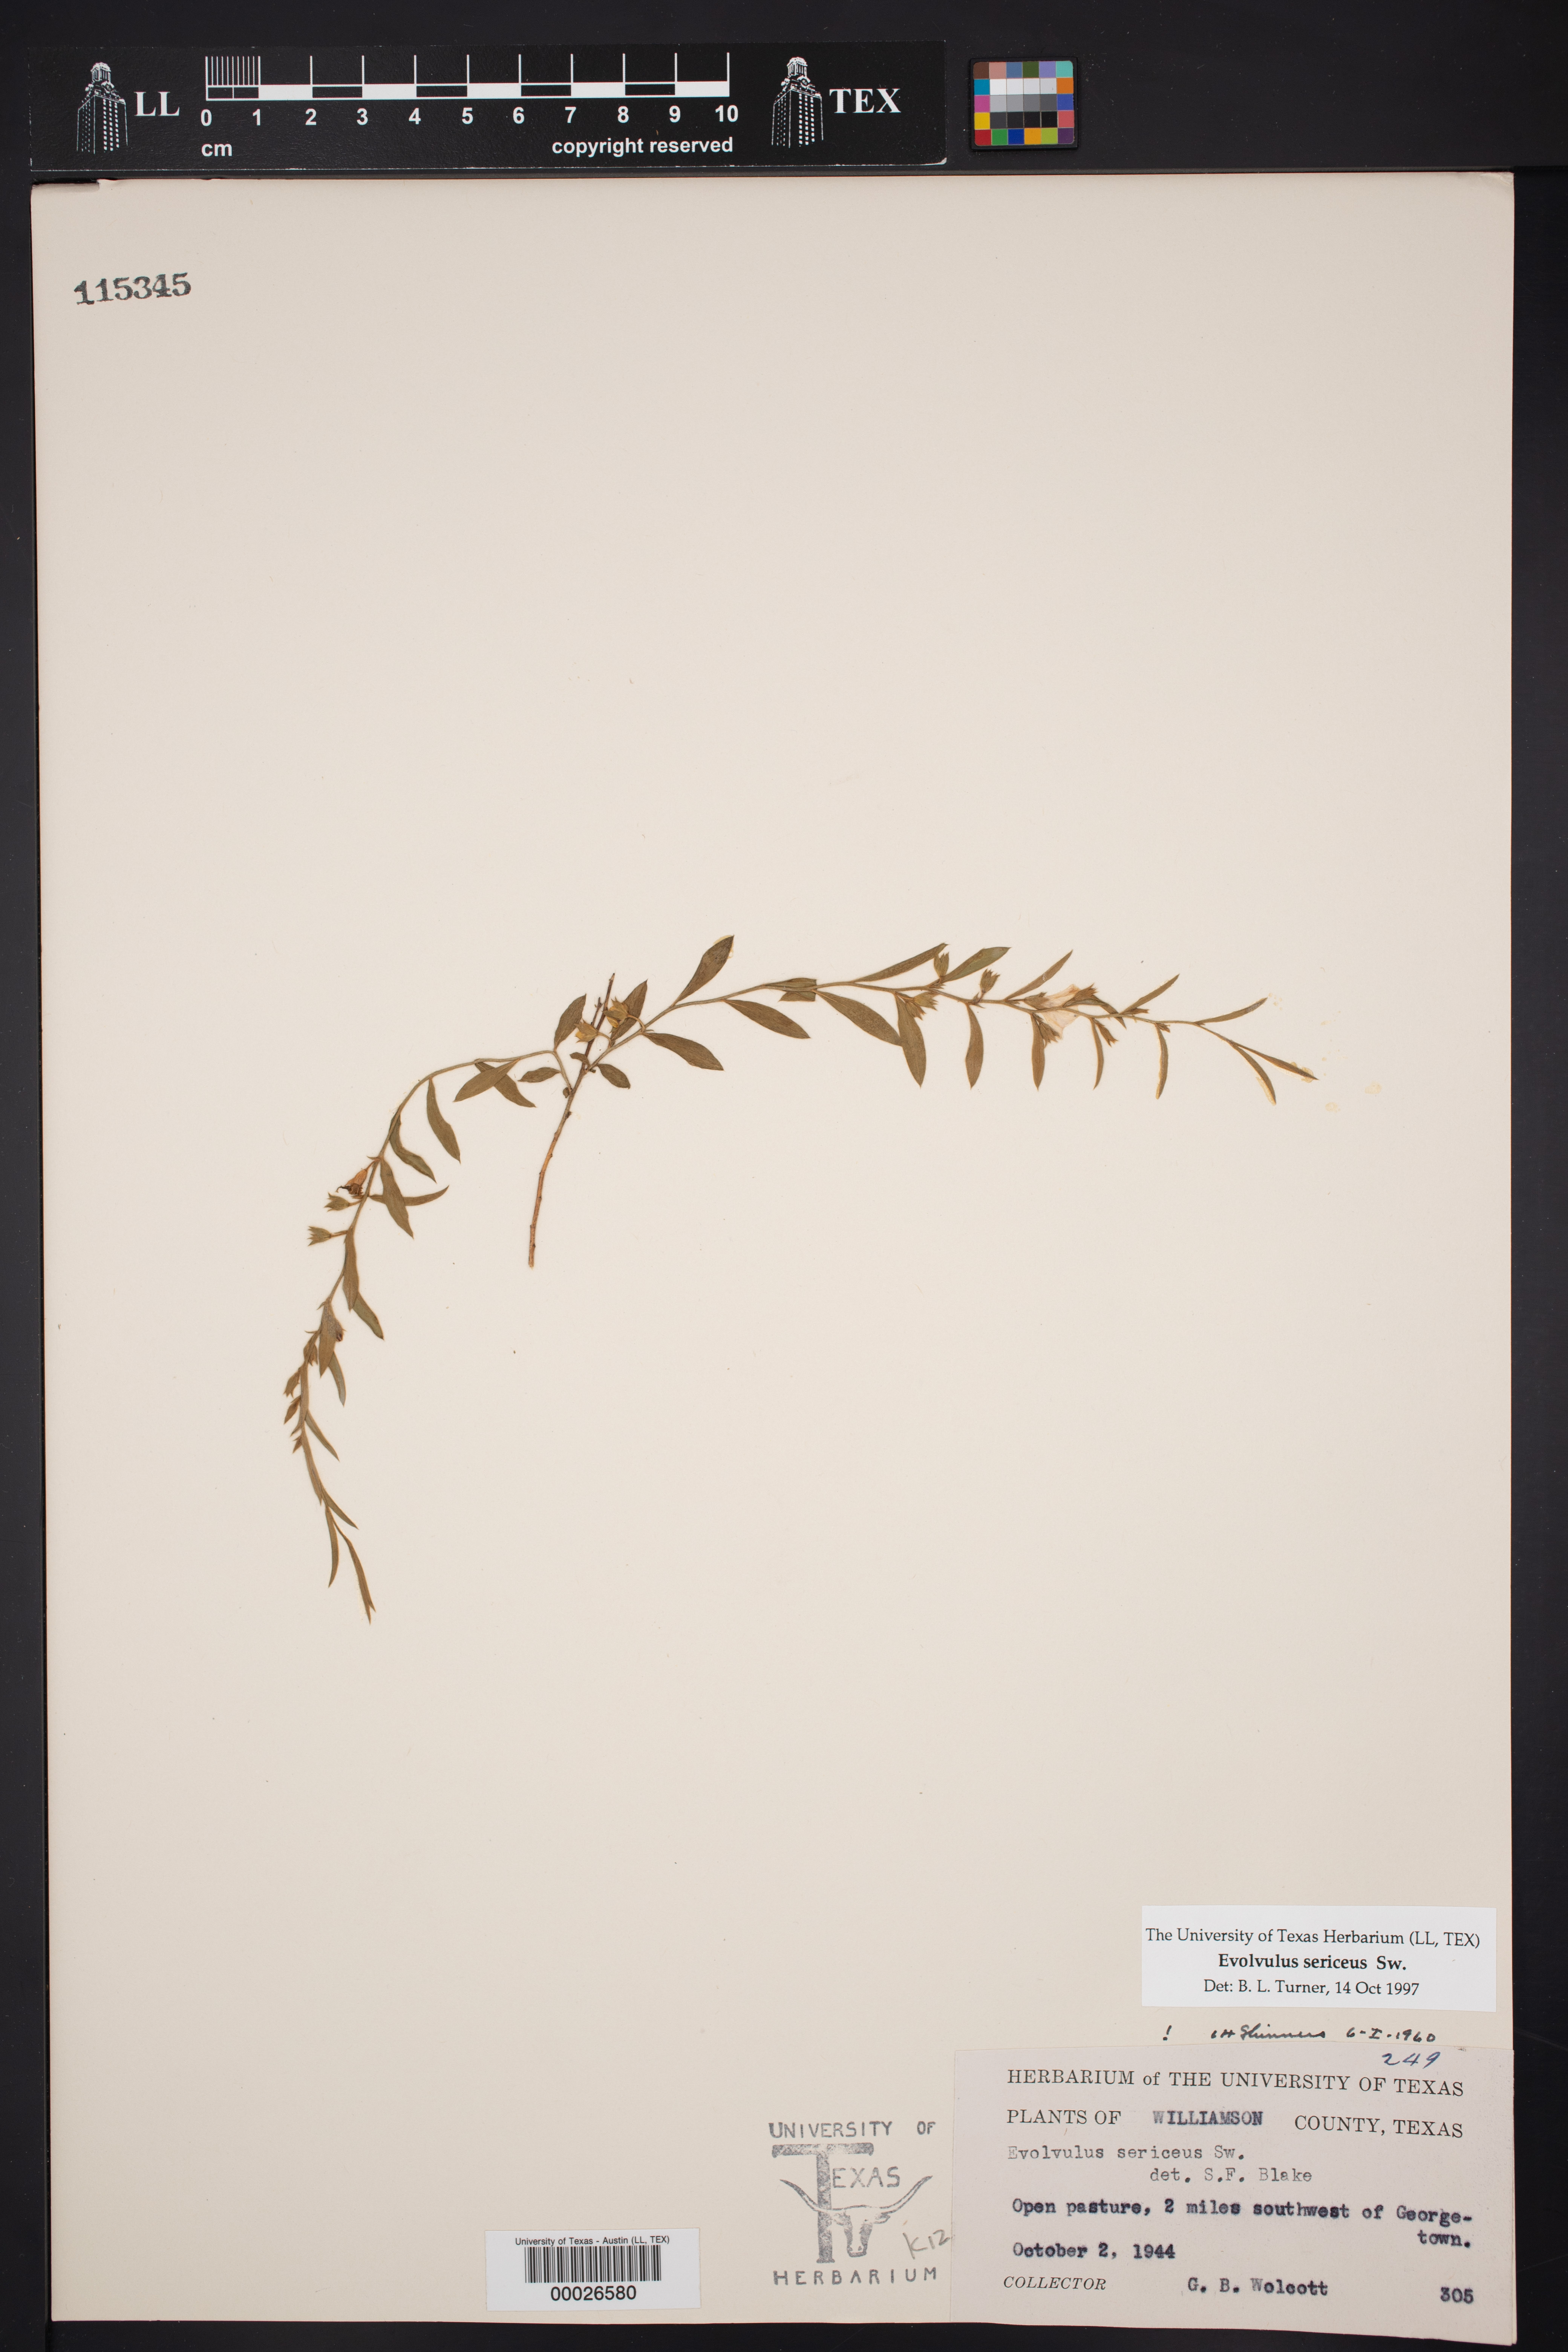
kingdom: Plantae
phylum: Tracheophyta
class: Magnoliopsida
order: Solanales
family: Convolvulaceae
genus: Evolvulus
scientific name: Evolvulus sericeus
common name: Blue dots
